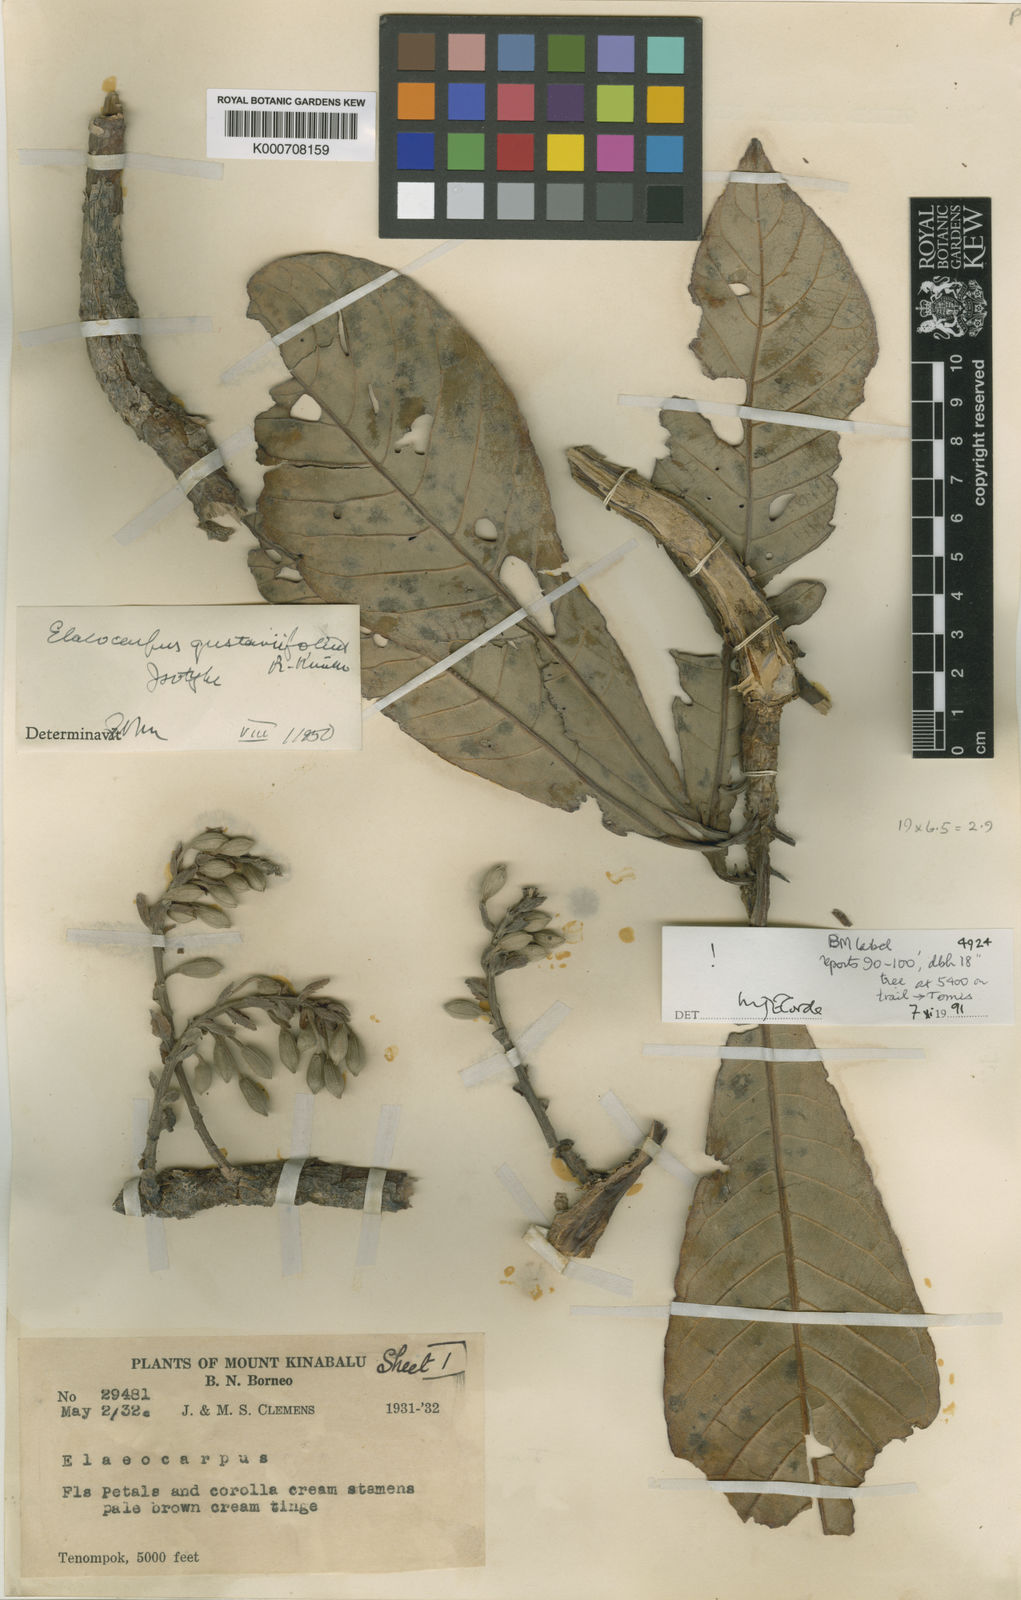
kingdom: Plantae
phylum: Tracheophyta
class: Magnoliopsida
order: Oxalidales
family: Elaeocarpaceae
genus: Elaeocarpus
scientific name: Elaeocarpus gustaviifolius
